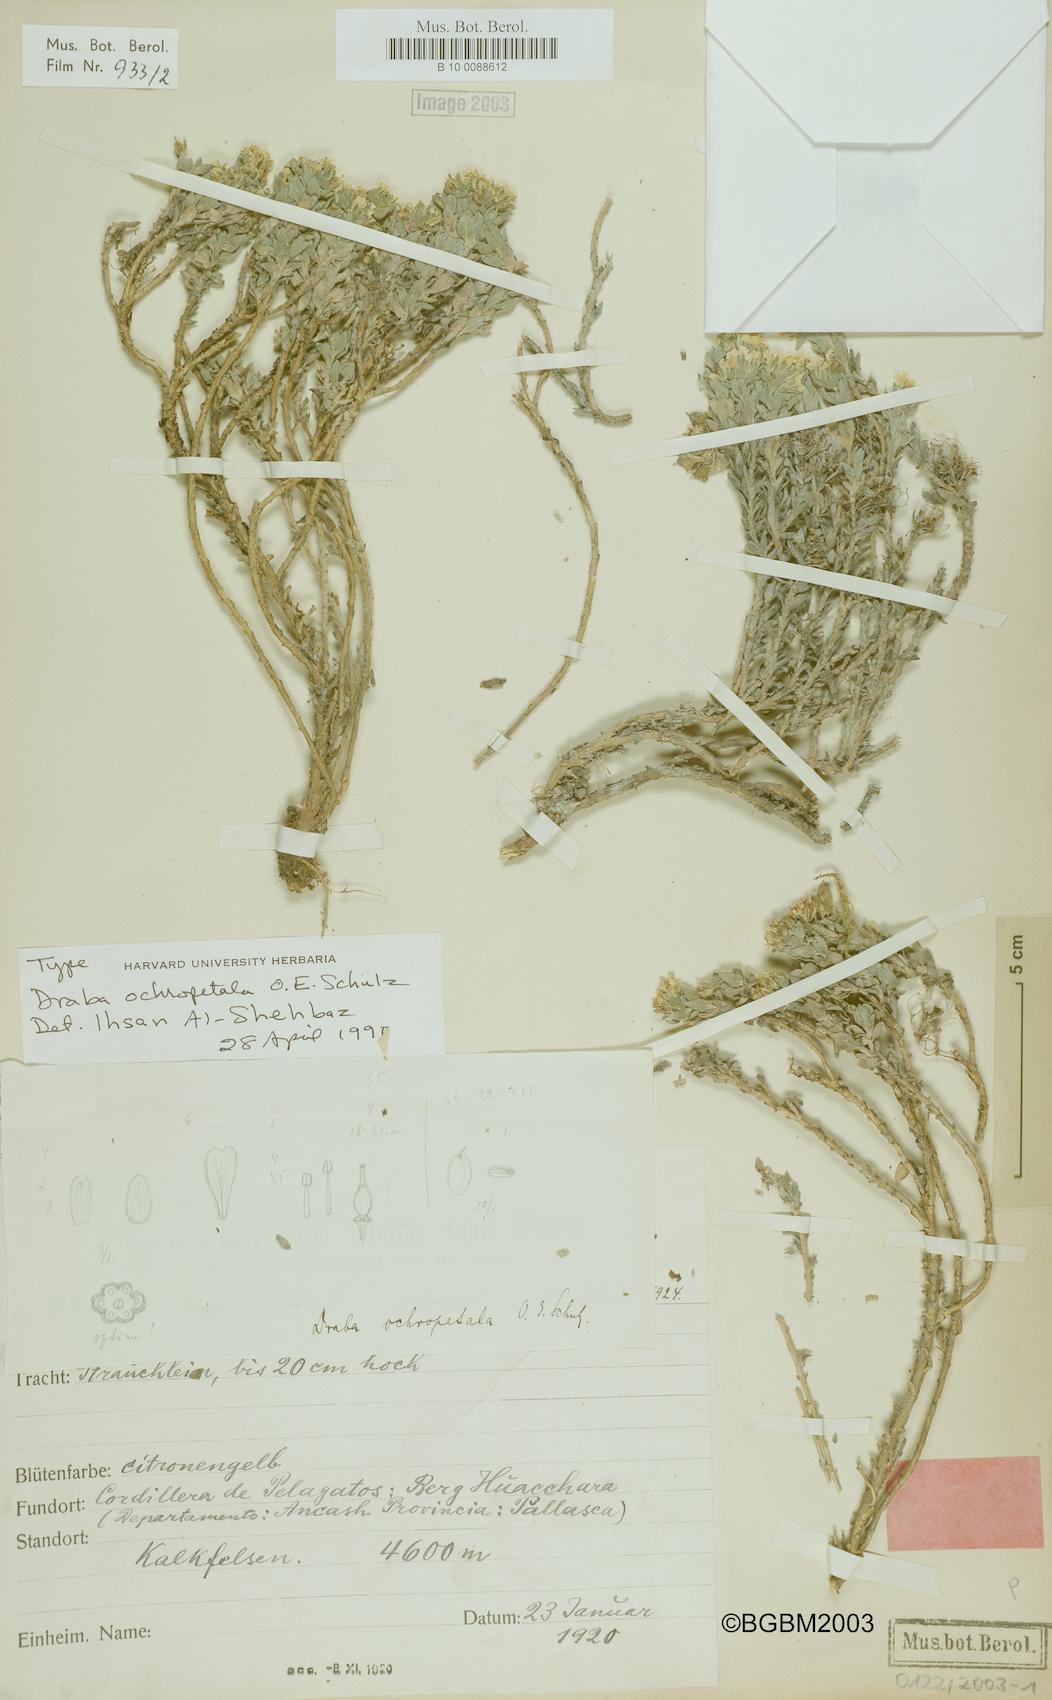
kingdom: Plantae
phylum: Tracheophyta
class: Magnoliopsida
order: Brassicales
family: Brassicaceae
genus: Draba
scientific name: Draba ochropetala
